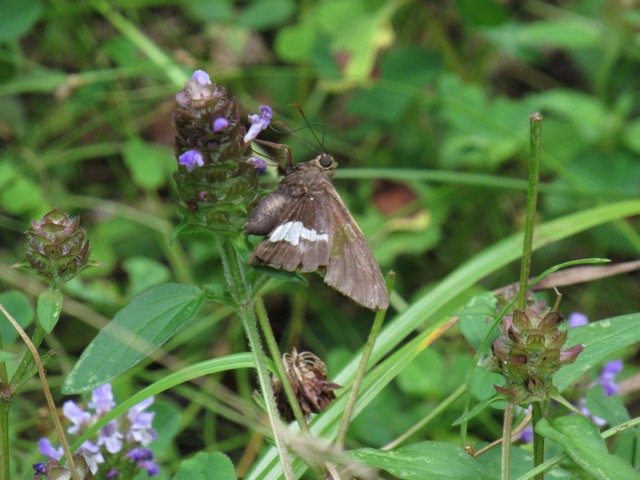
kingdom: Animalia
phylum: Arthropoda
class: Insecta
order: Lepidoptera
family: Hesperiidae
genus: Epargyreus
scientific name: Epargyreus clarus
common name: Silver-spotted Skipper
